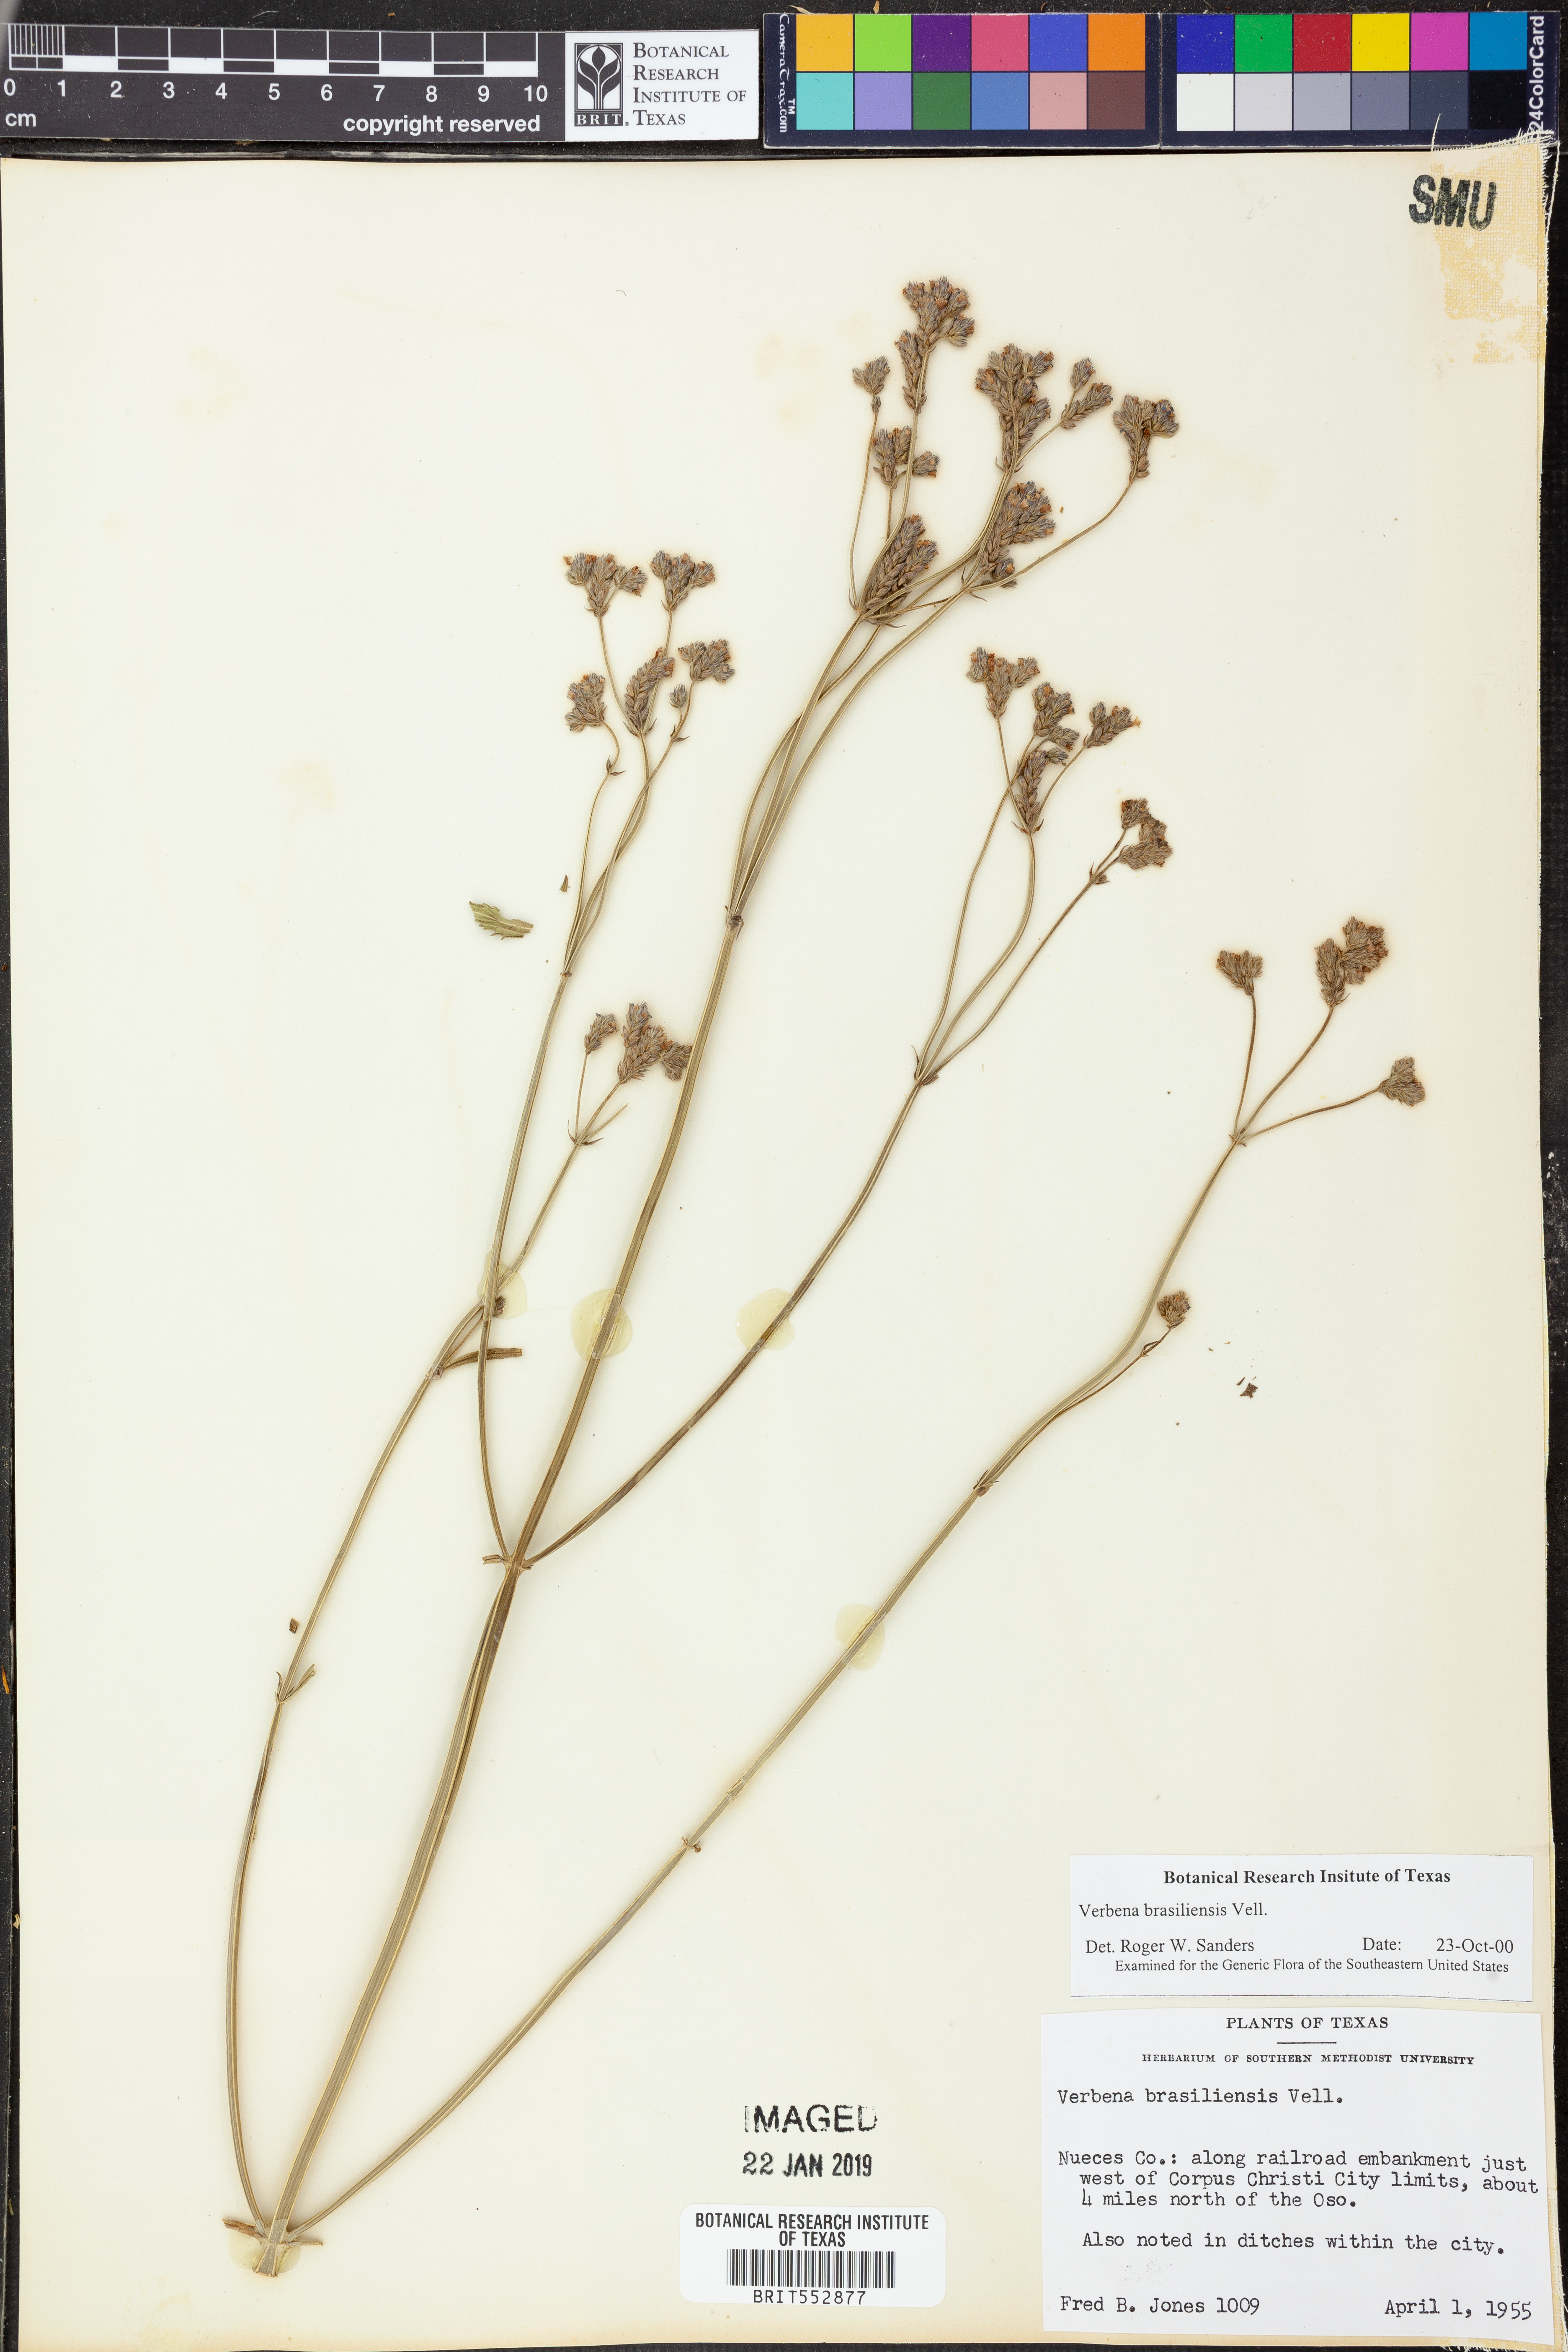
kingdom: Plantae
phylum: Tracheophyta
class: Magnoliopsida
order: Lamiales
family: Verbenaceae
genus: Verbena
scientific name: Verbena brasiliensis
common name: Brazilian vervain
